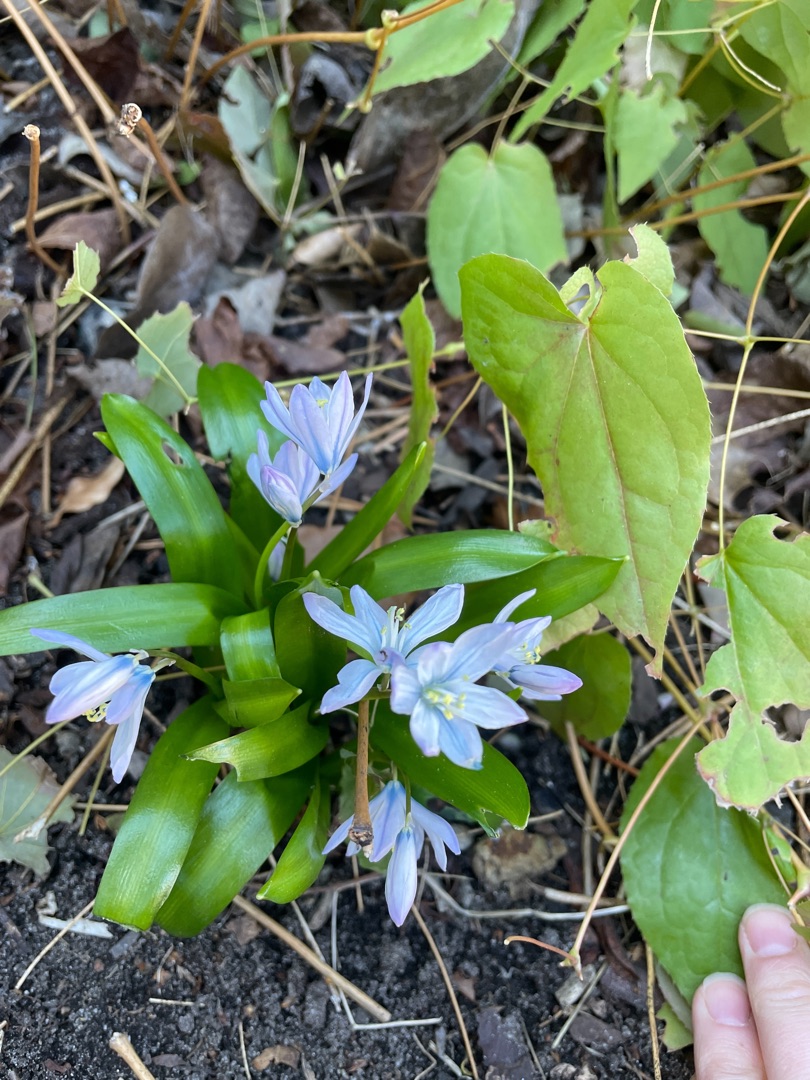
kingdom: Plantae
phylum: Tracheophyta
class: Liliopsida
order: Asparagales
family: Asparagaceae
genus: Scilla
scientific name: Scilla mischtschenkoana
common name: Persisk skilla
